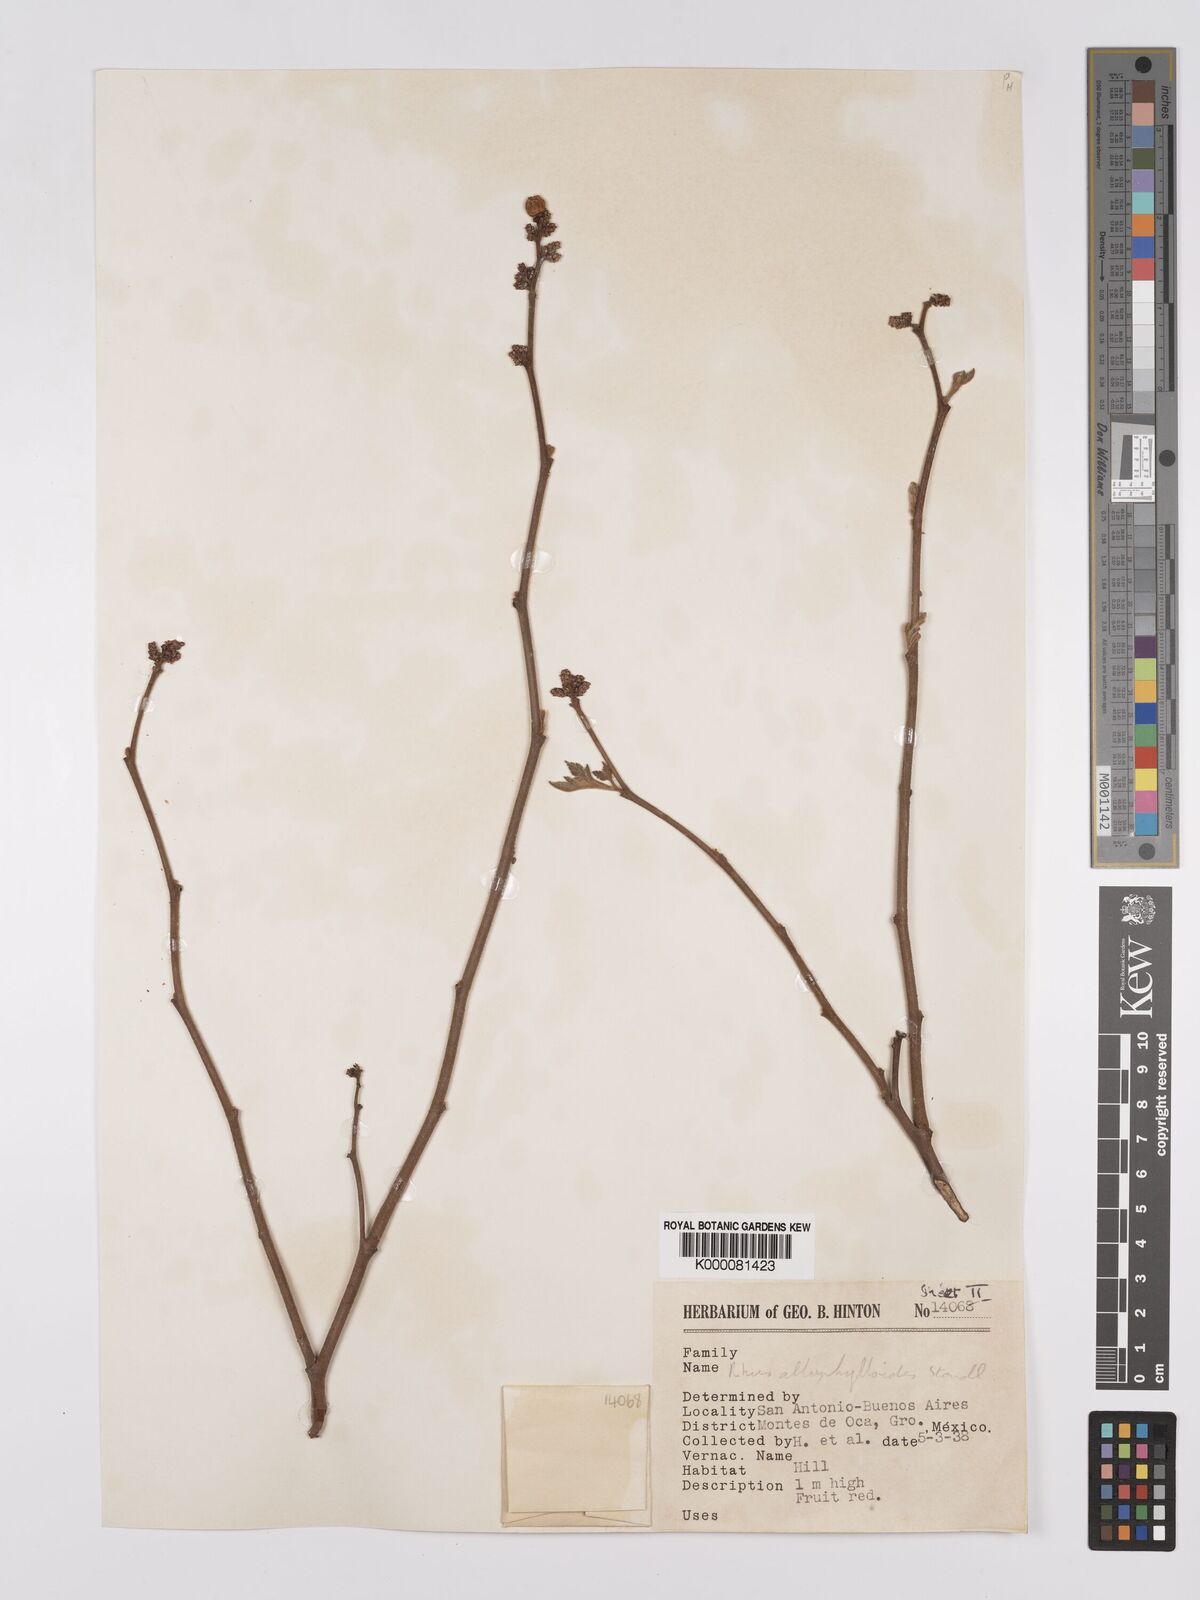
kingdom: Plantae
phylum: Tracheophyta
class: Magnoliopsida
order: Sapindales
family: Anacardiaceae
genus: Rhus
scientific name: Rhus allophyloides
